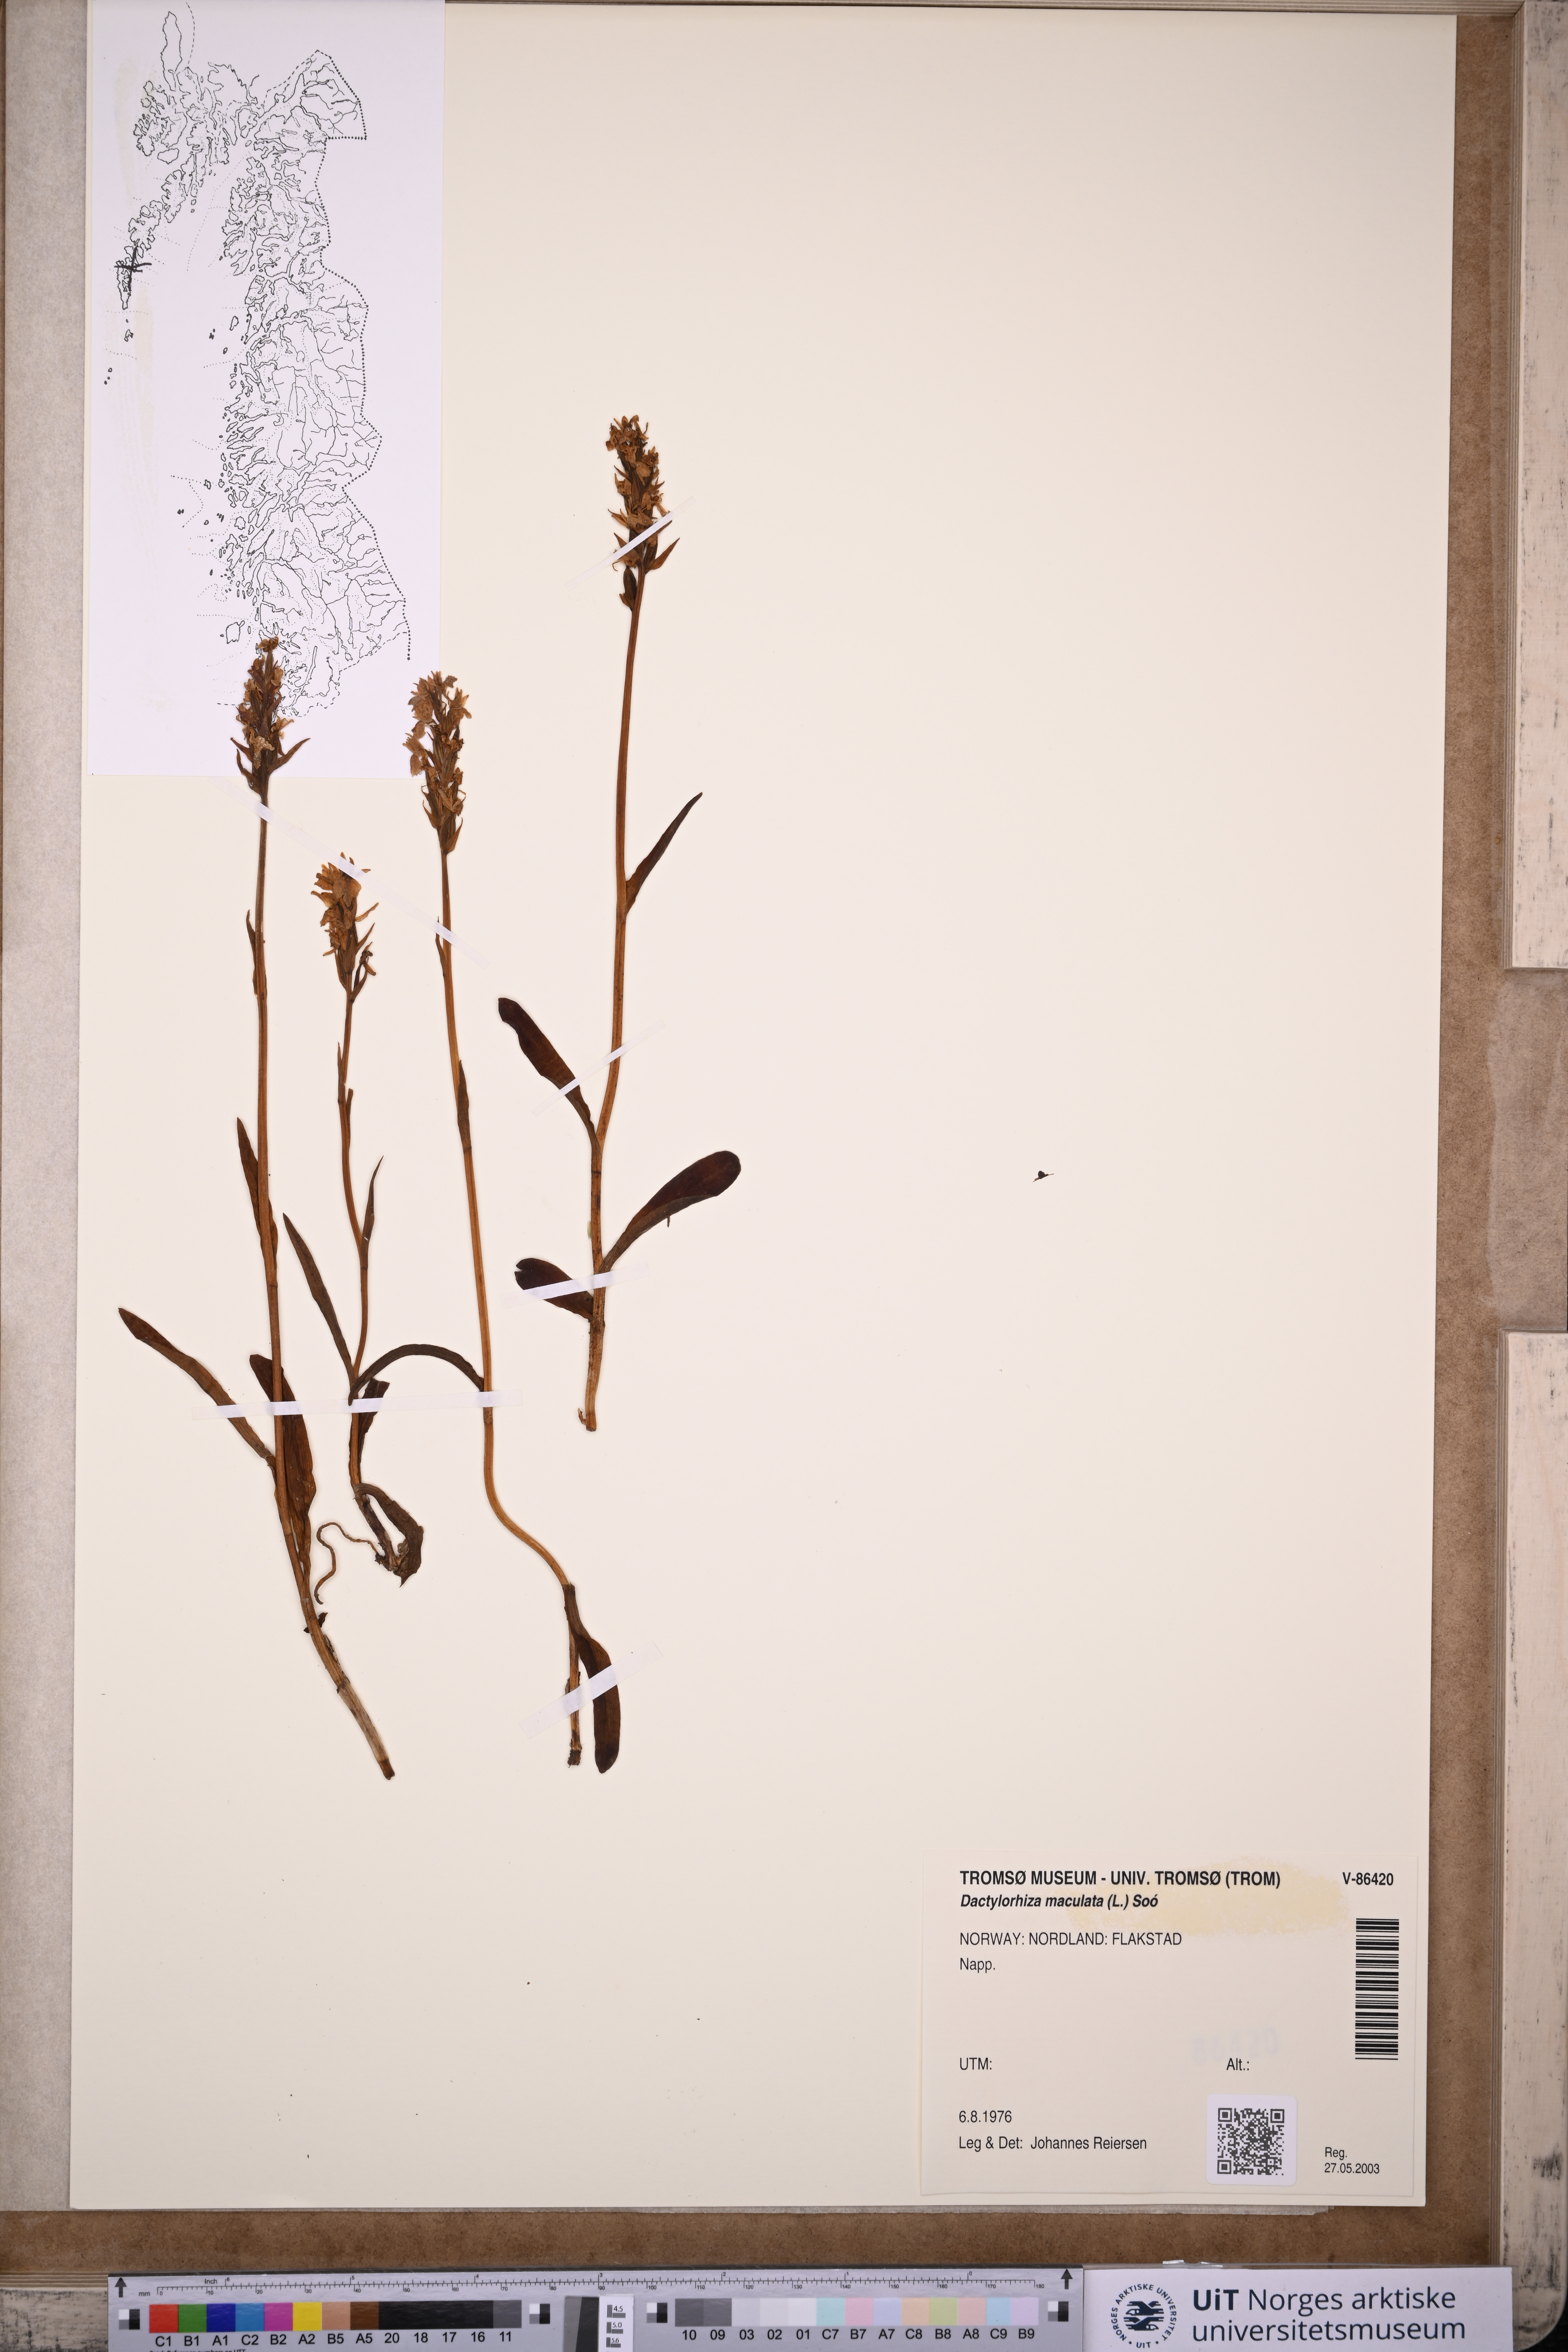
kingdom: Plantae
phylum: Tracheophyta
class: Liliopsida
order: Asparagales
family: Orchidaceae
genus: Dactylorhiza
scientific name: Dactylorhiza maculata
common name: Heath spotted-orchid
